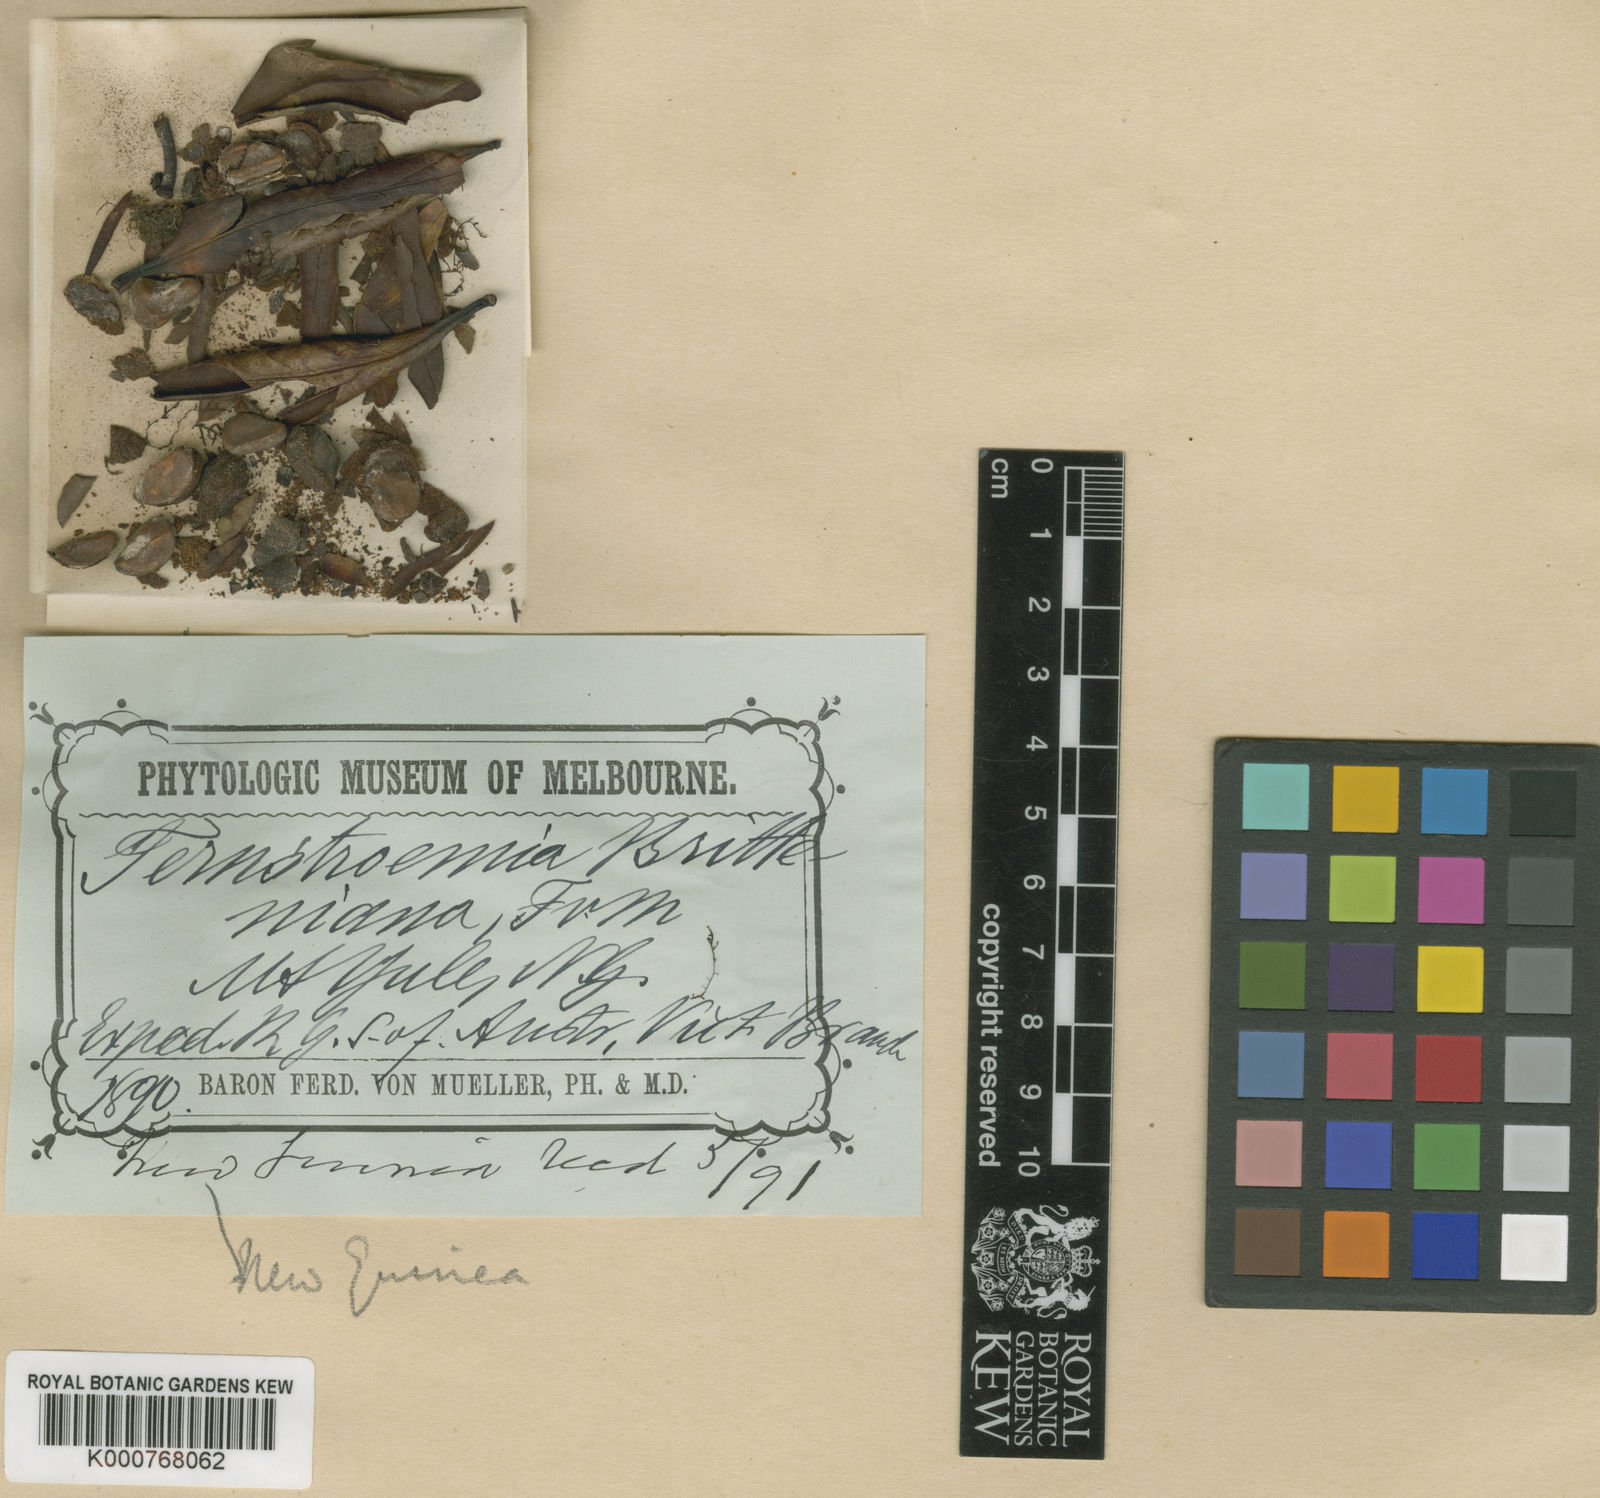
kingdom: Plantae
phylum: Tracheophyta
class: Magnoliopsida
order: Ericales
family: Pentaphylacaceae
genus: Ternstroemia
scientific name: Ternstroemia
